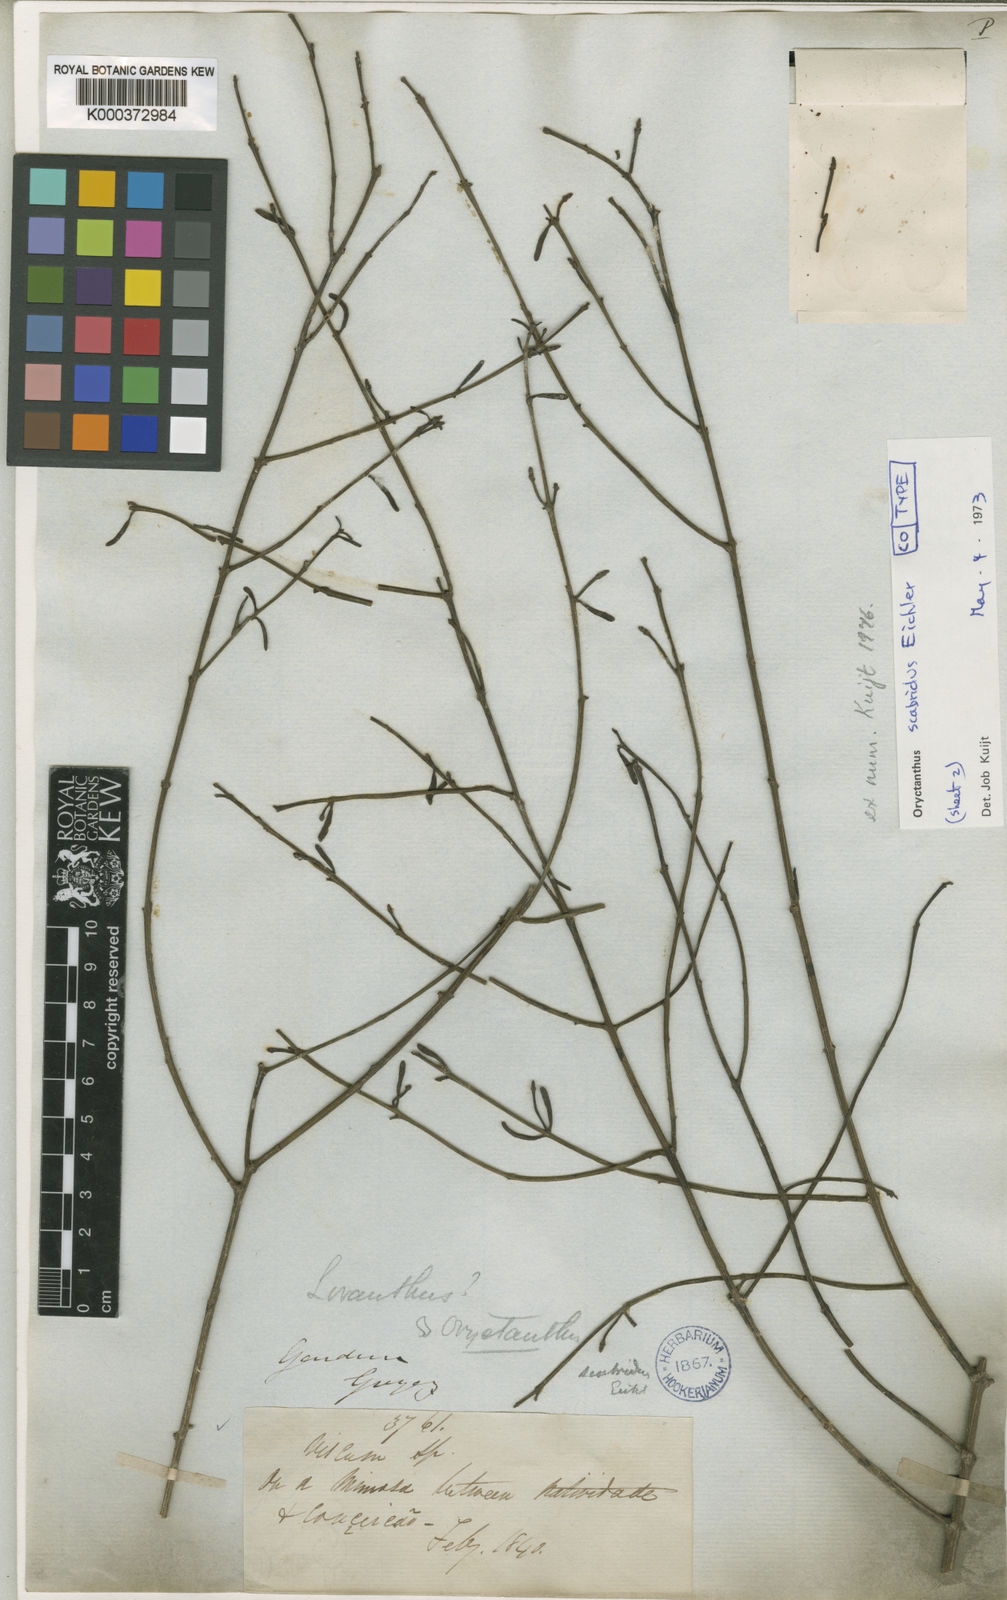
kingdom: Plantae
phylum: Tracheophyta
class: Magnoliopsida
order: Santalales
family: Loranthaceae
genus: Oryctina
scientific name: Oryctina scabrida
